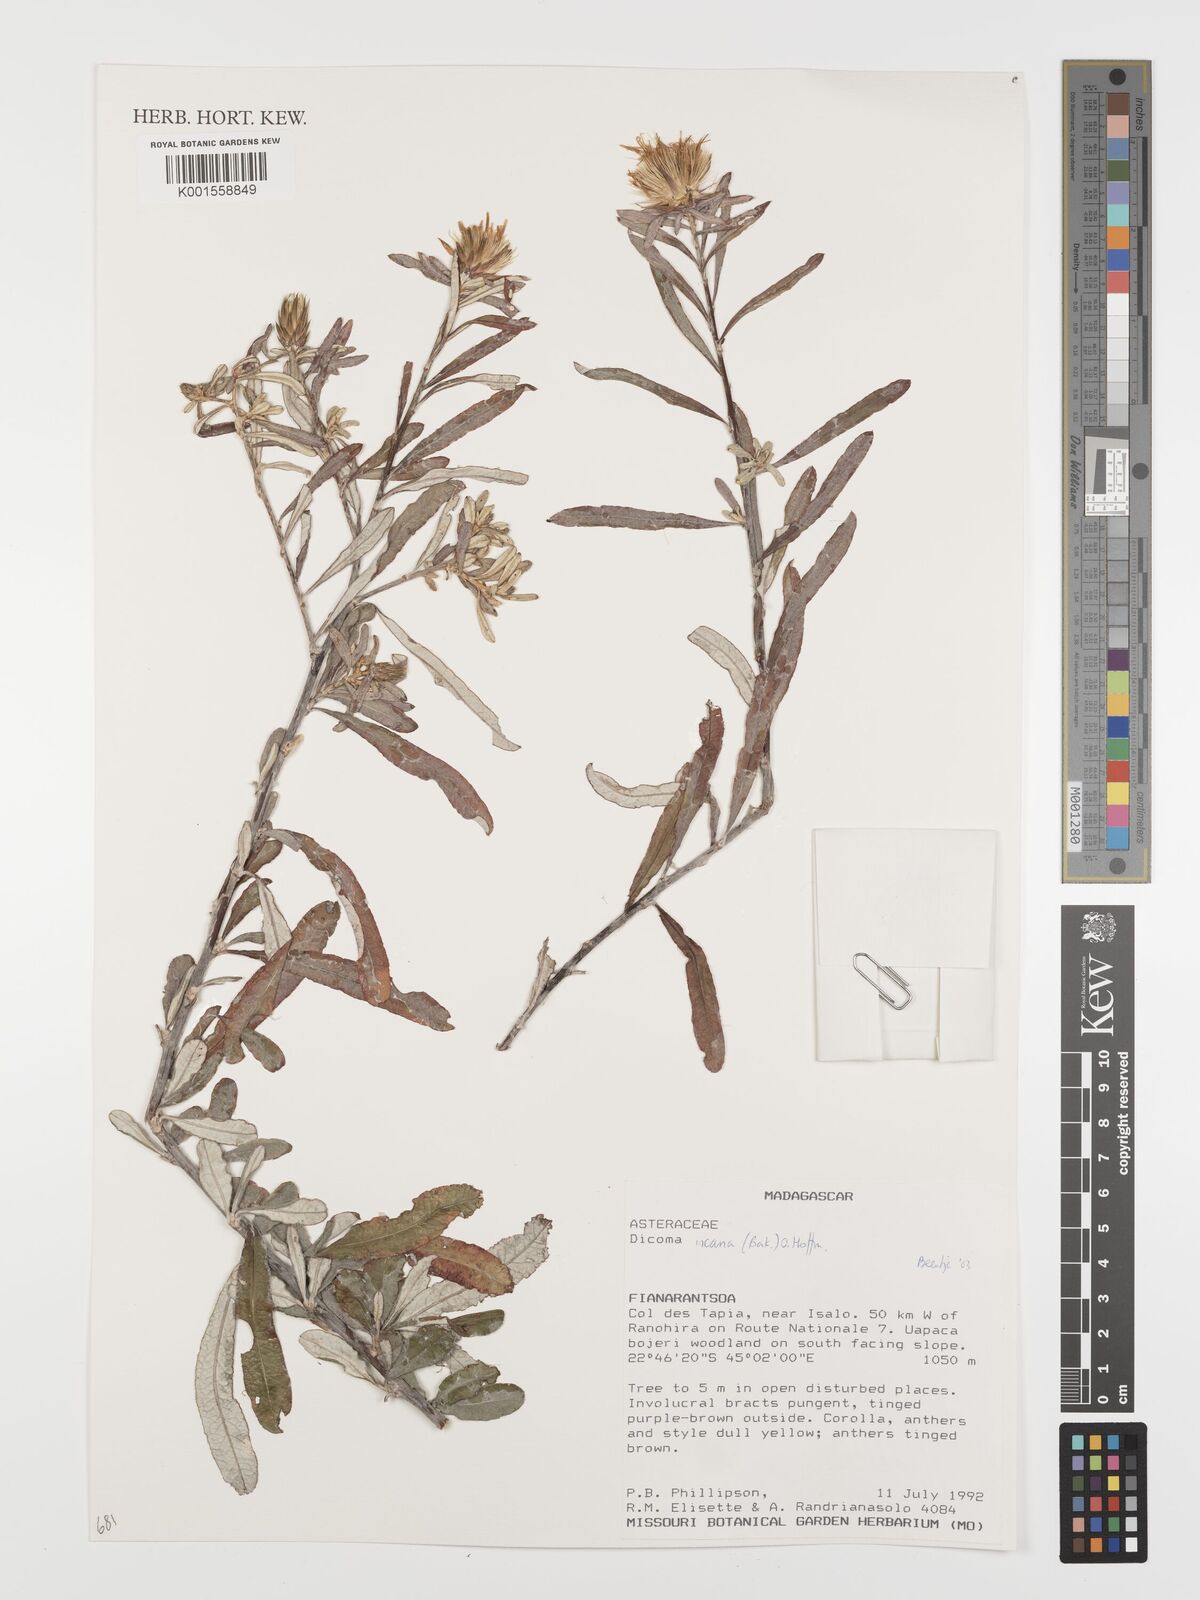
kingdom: Plantae
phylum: Tracheophyta
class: Magnoliopsida
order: Asterales
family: Asteraceae
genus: Dicoma
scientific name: Dicoma incana
